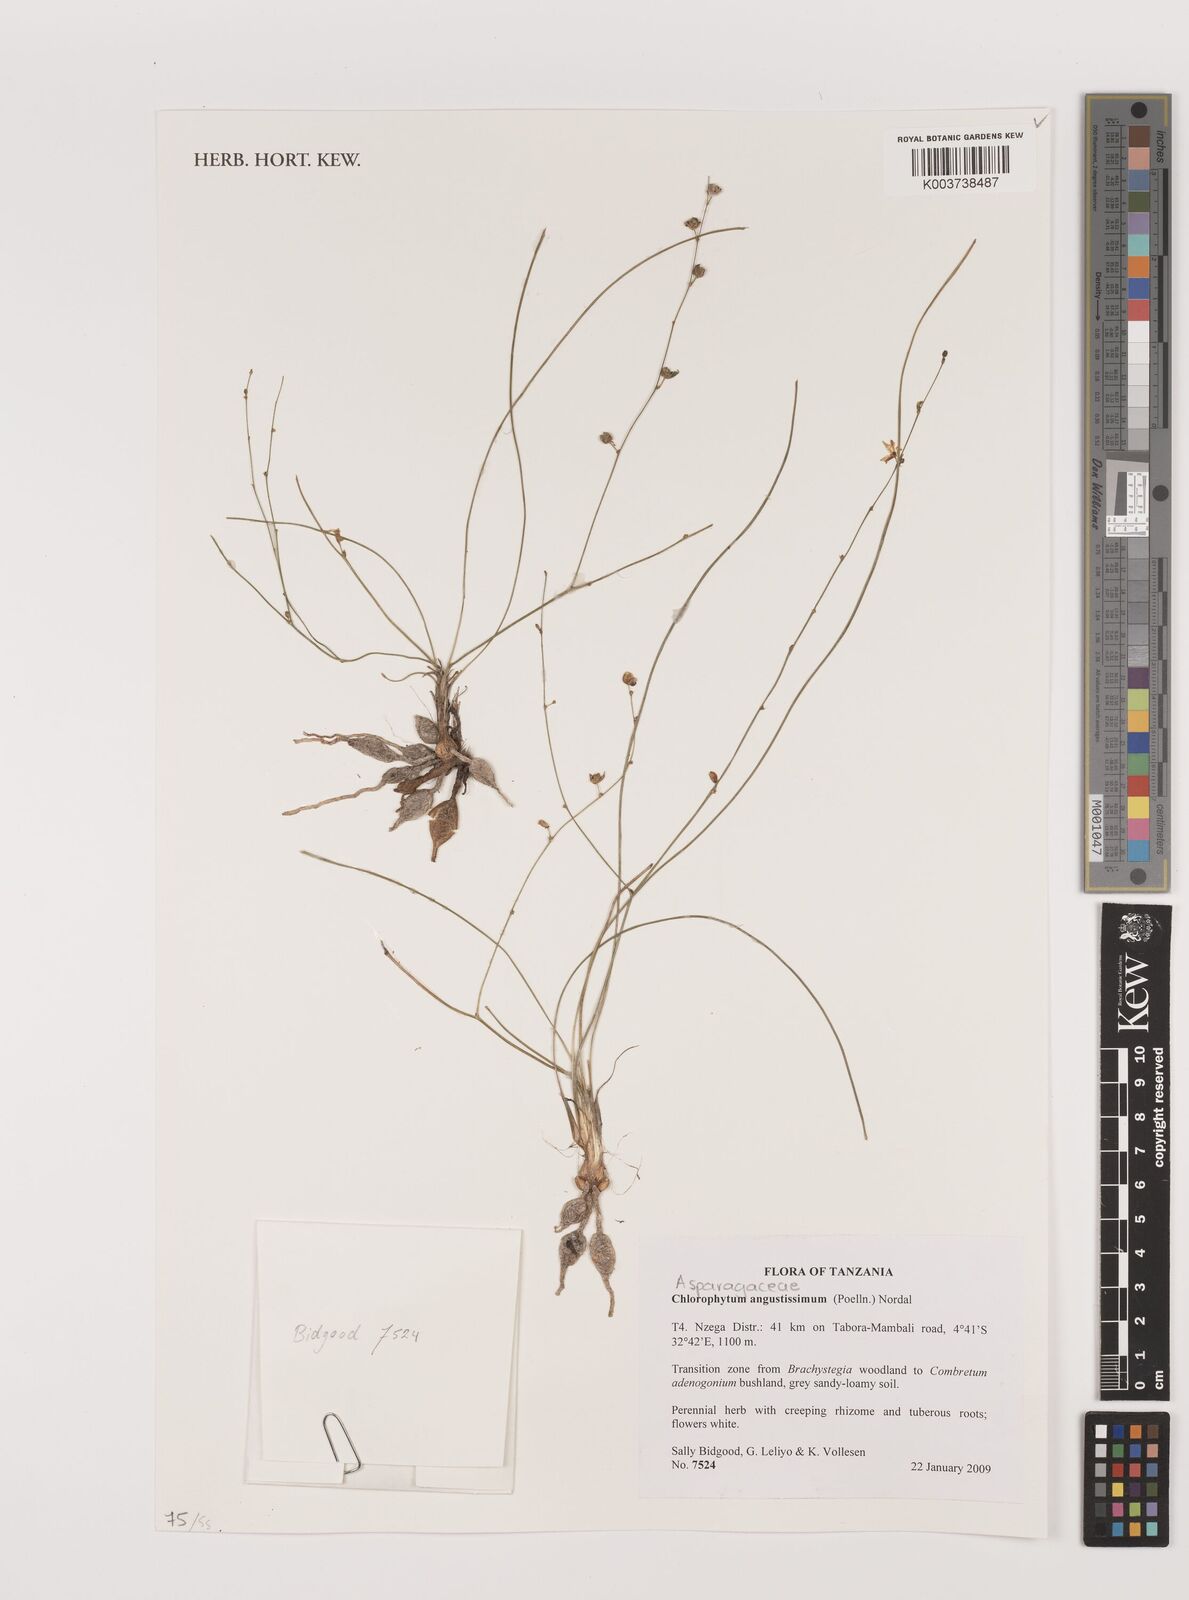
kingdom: Plantae
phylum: Tracheophyta
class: Liliopsida
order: Asparagales
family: Asparagaceae
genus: Chlorophytum
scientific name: Chlorophytum angustissimum
